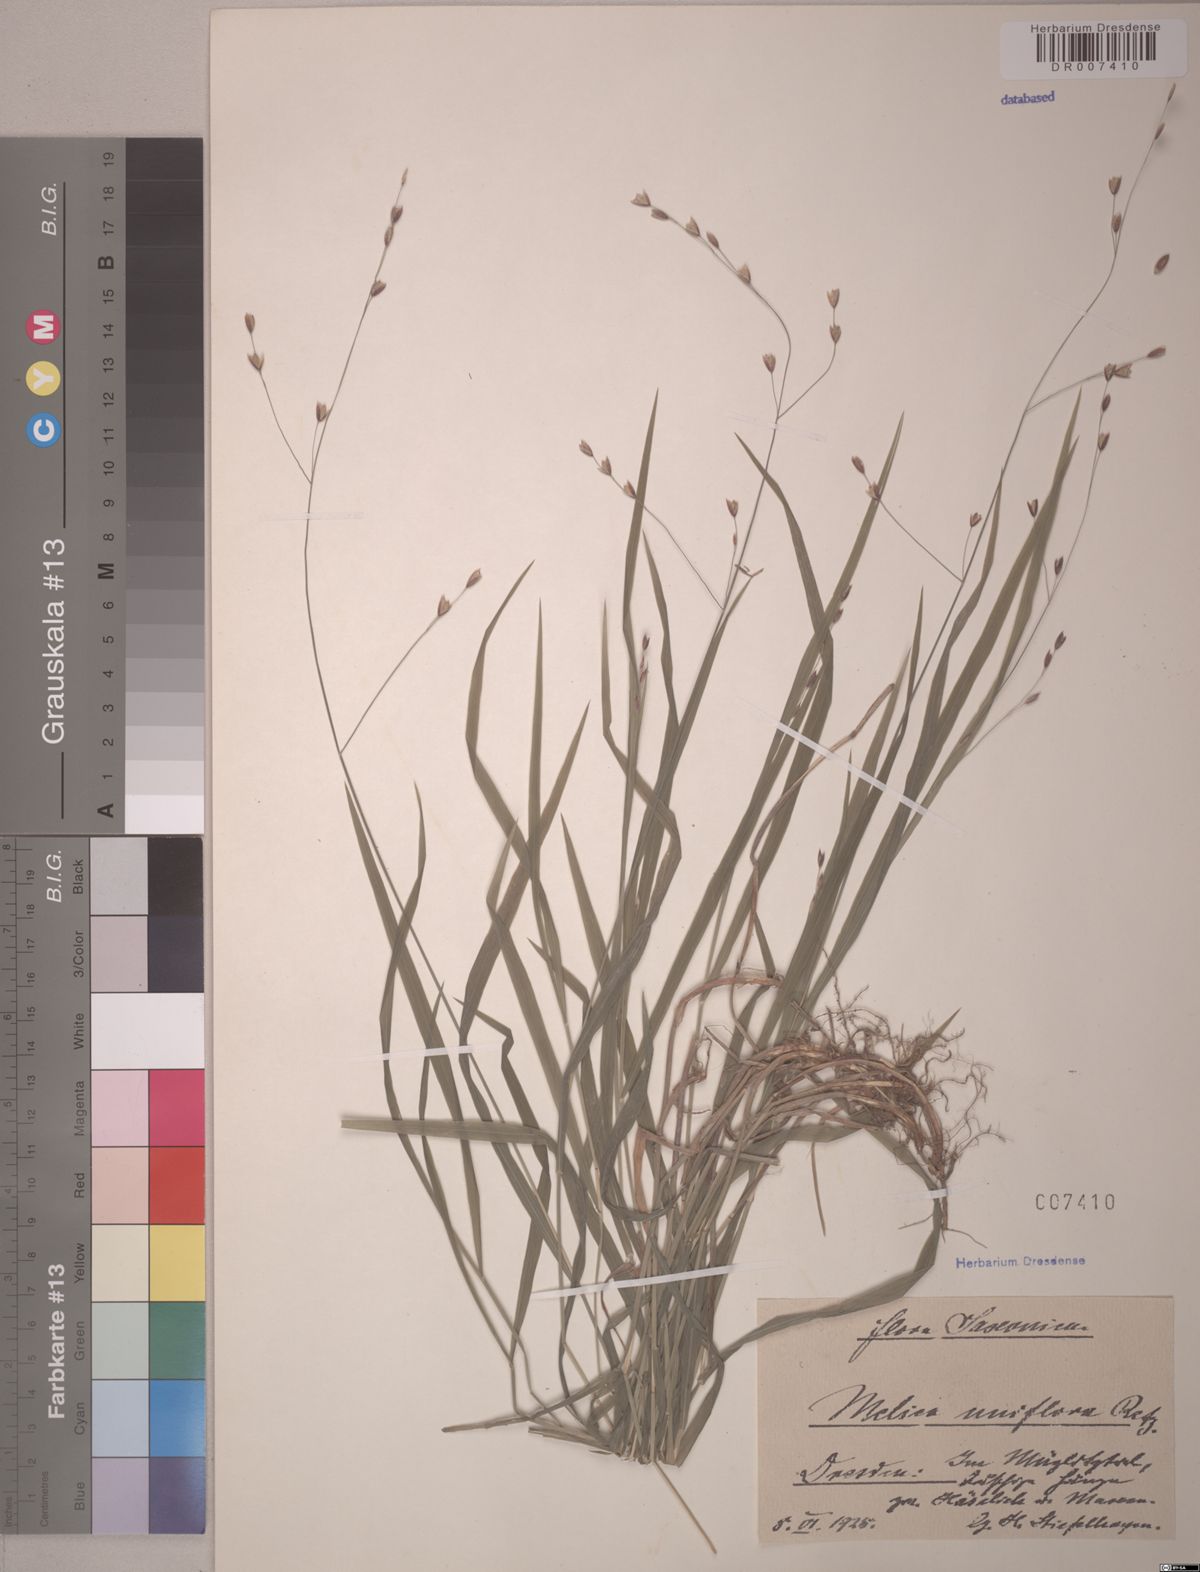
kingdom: Plantae
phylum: Tracheophyta
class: Liliopsida
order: Poales
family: Poaceae
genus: Melica
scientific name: Melica uniflora
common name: Wood melick
